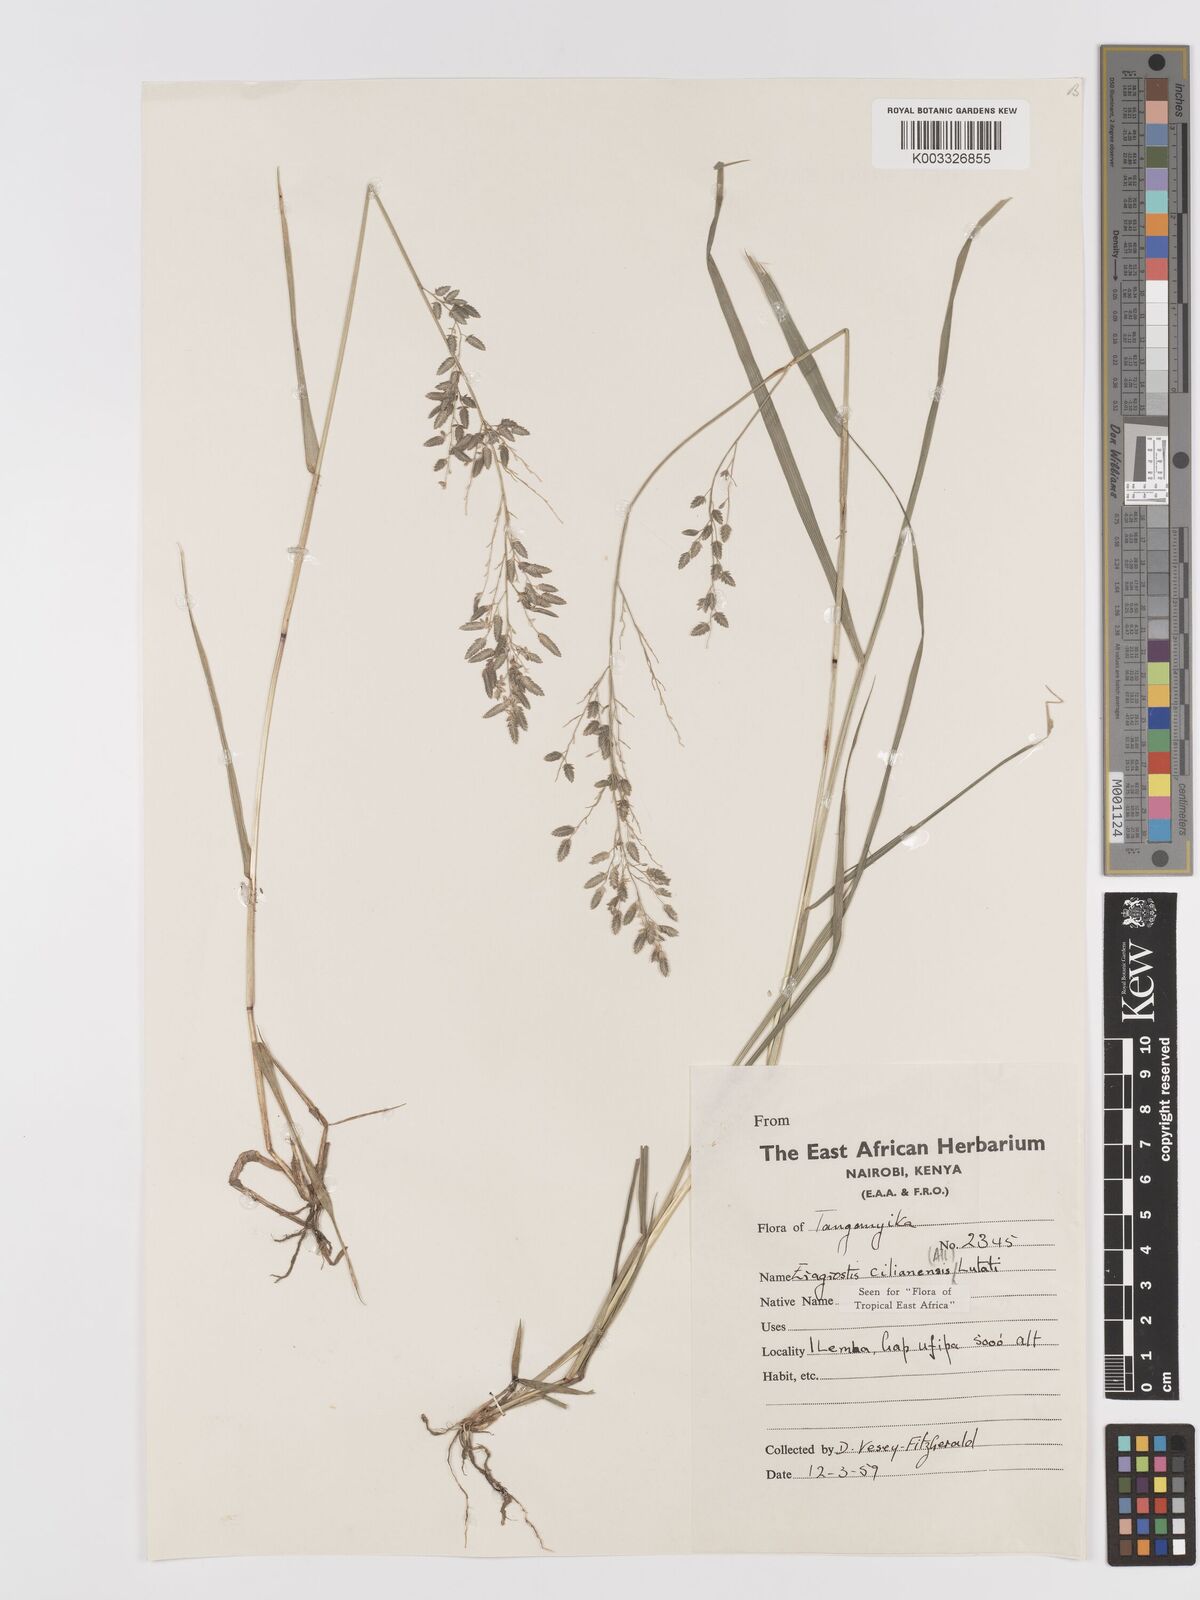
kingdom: Plantae
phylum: Tracheophyta
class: Liliopsida
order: Poales
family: Poaceae
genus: Eragrostis
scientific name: Eragrostis cilianensis
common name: Stinkgrass
